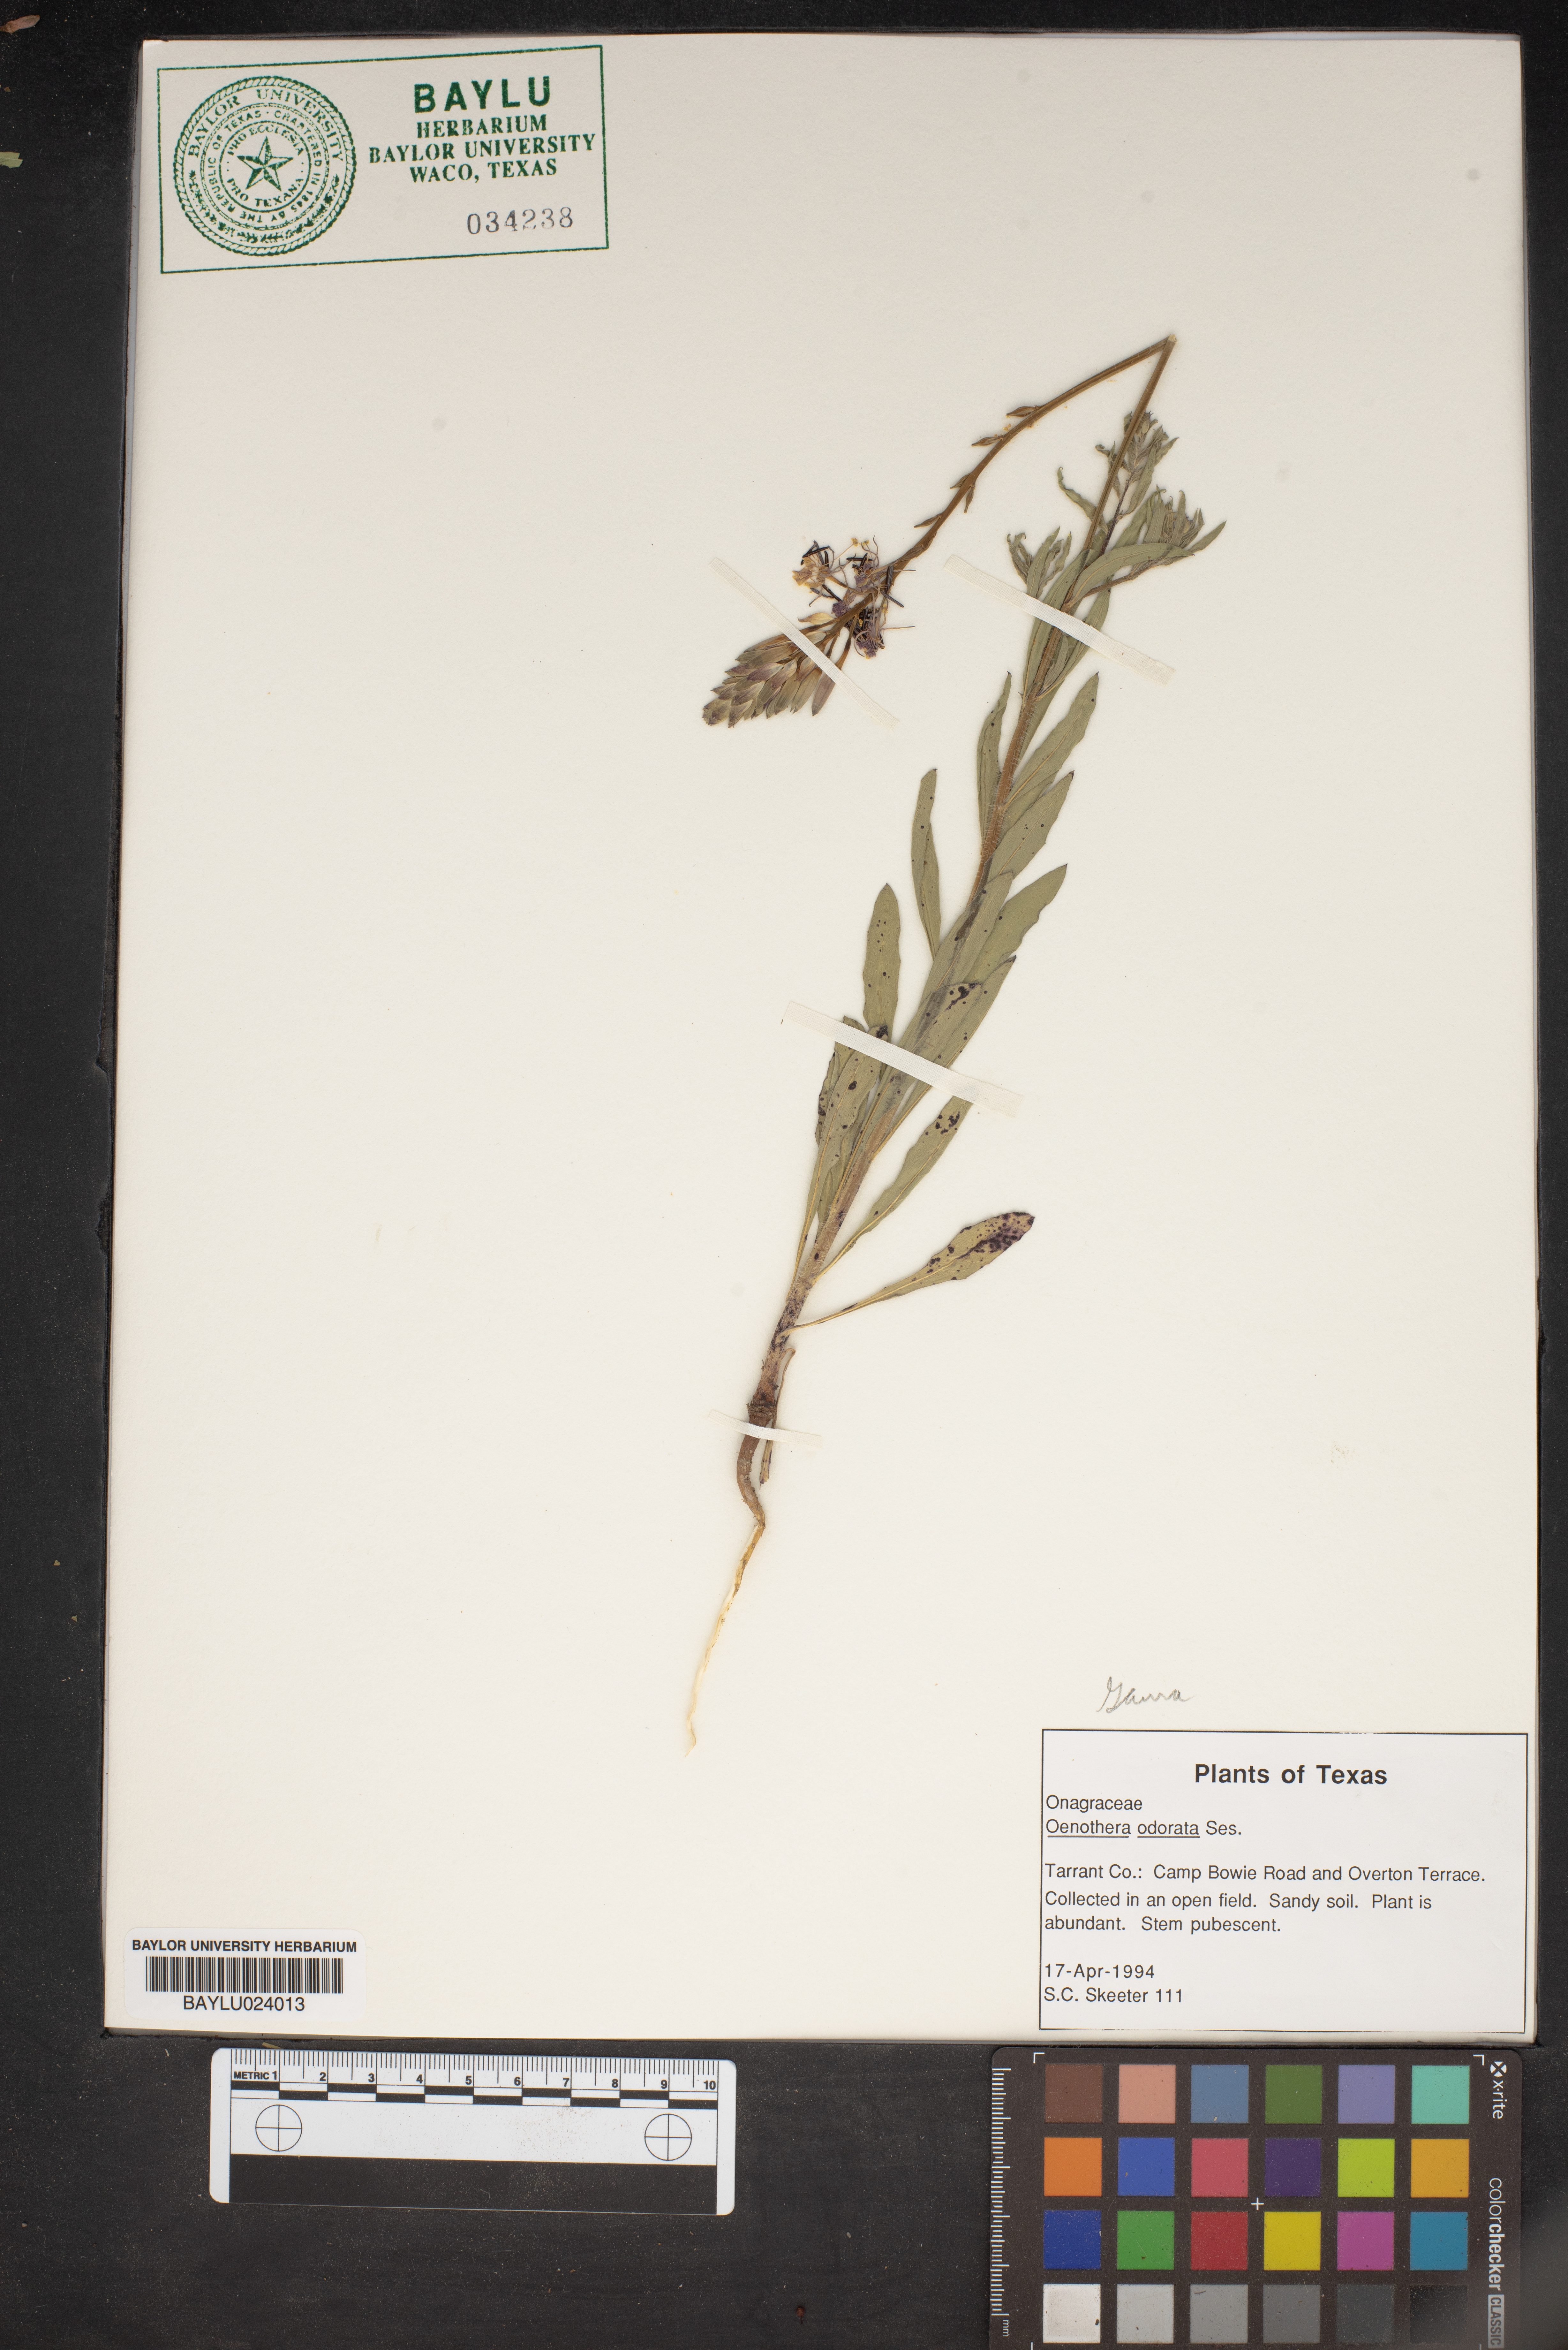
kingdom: Plantae
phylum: Tracheophyta
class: Magnoliopsida
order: Myrtales
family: Onagraceae
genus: Oenothera
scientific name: Oenothera odorata
